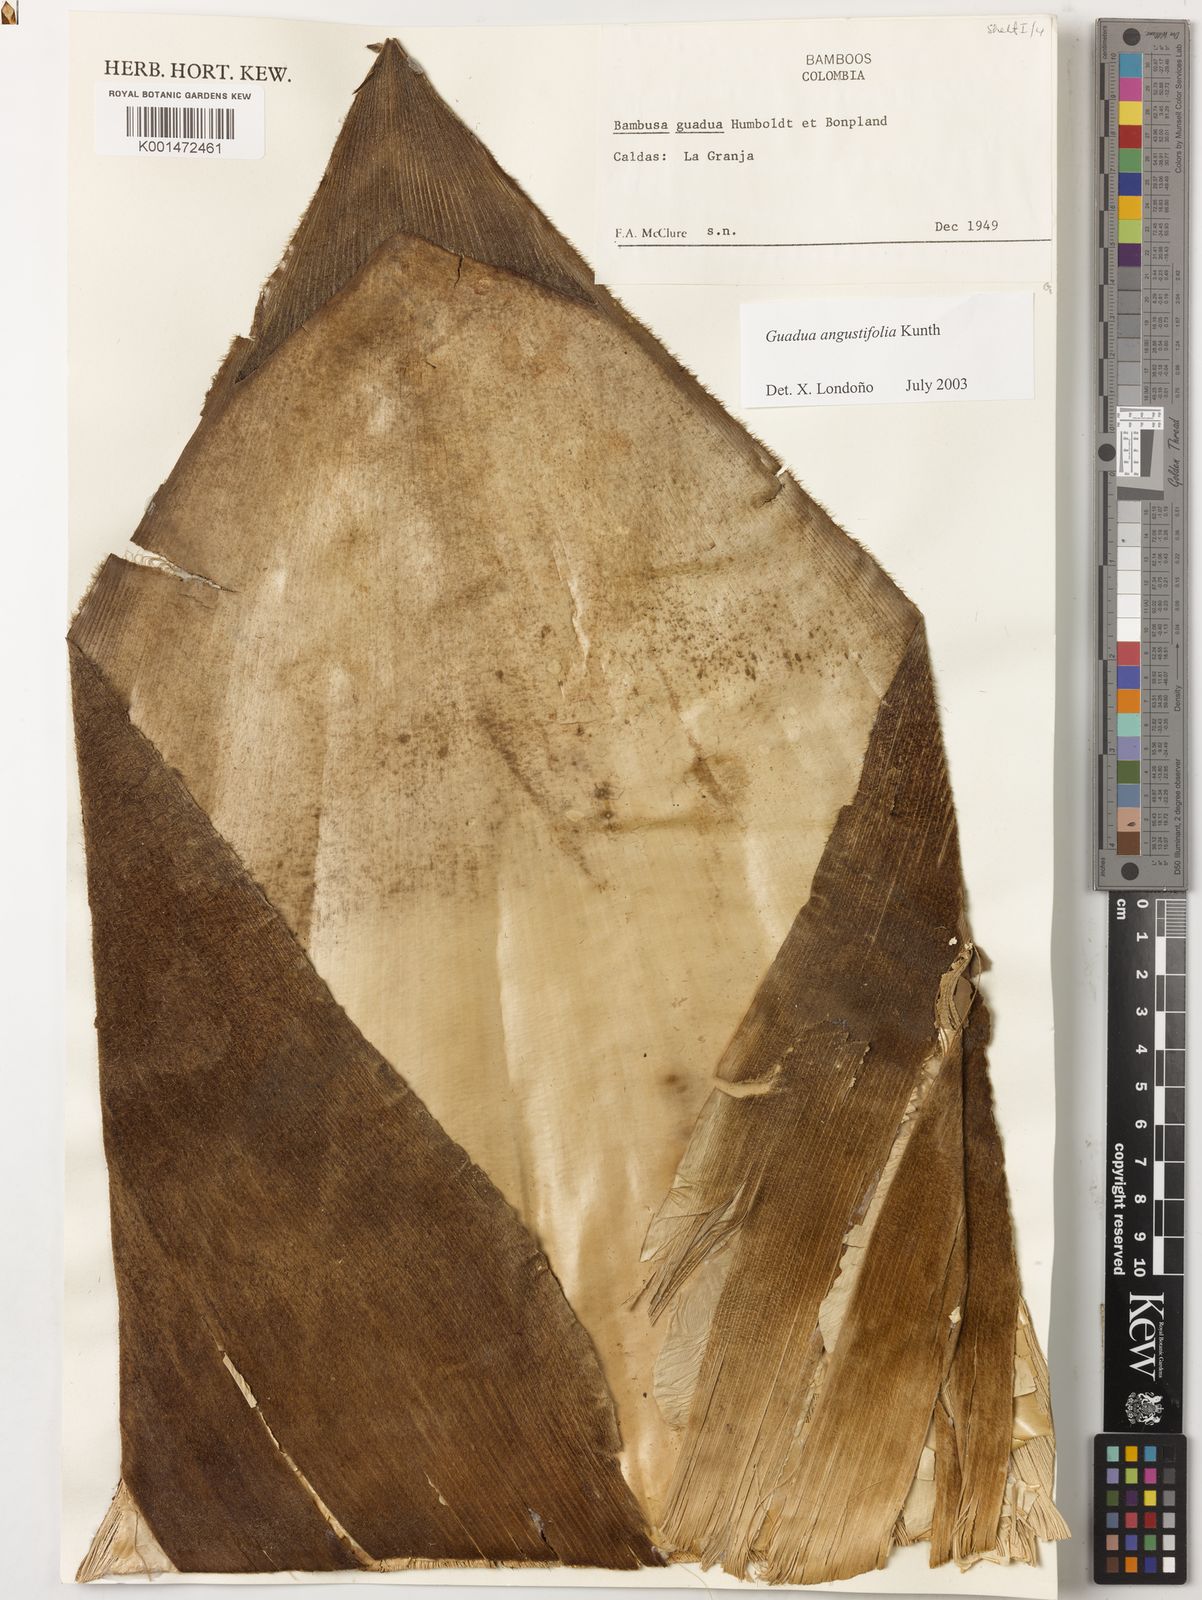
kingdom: Plantae
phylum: Tracheophyta
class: Liliopsida
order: Poales
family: Poaceae
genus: Guadua
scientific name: Guadua angustifolia
